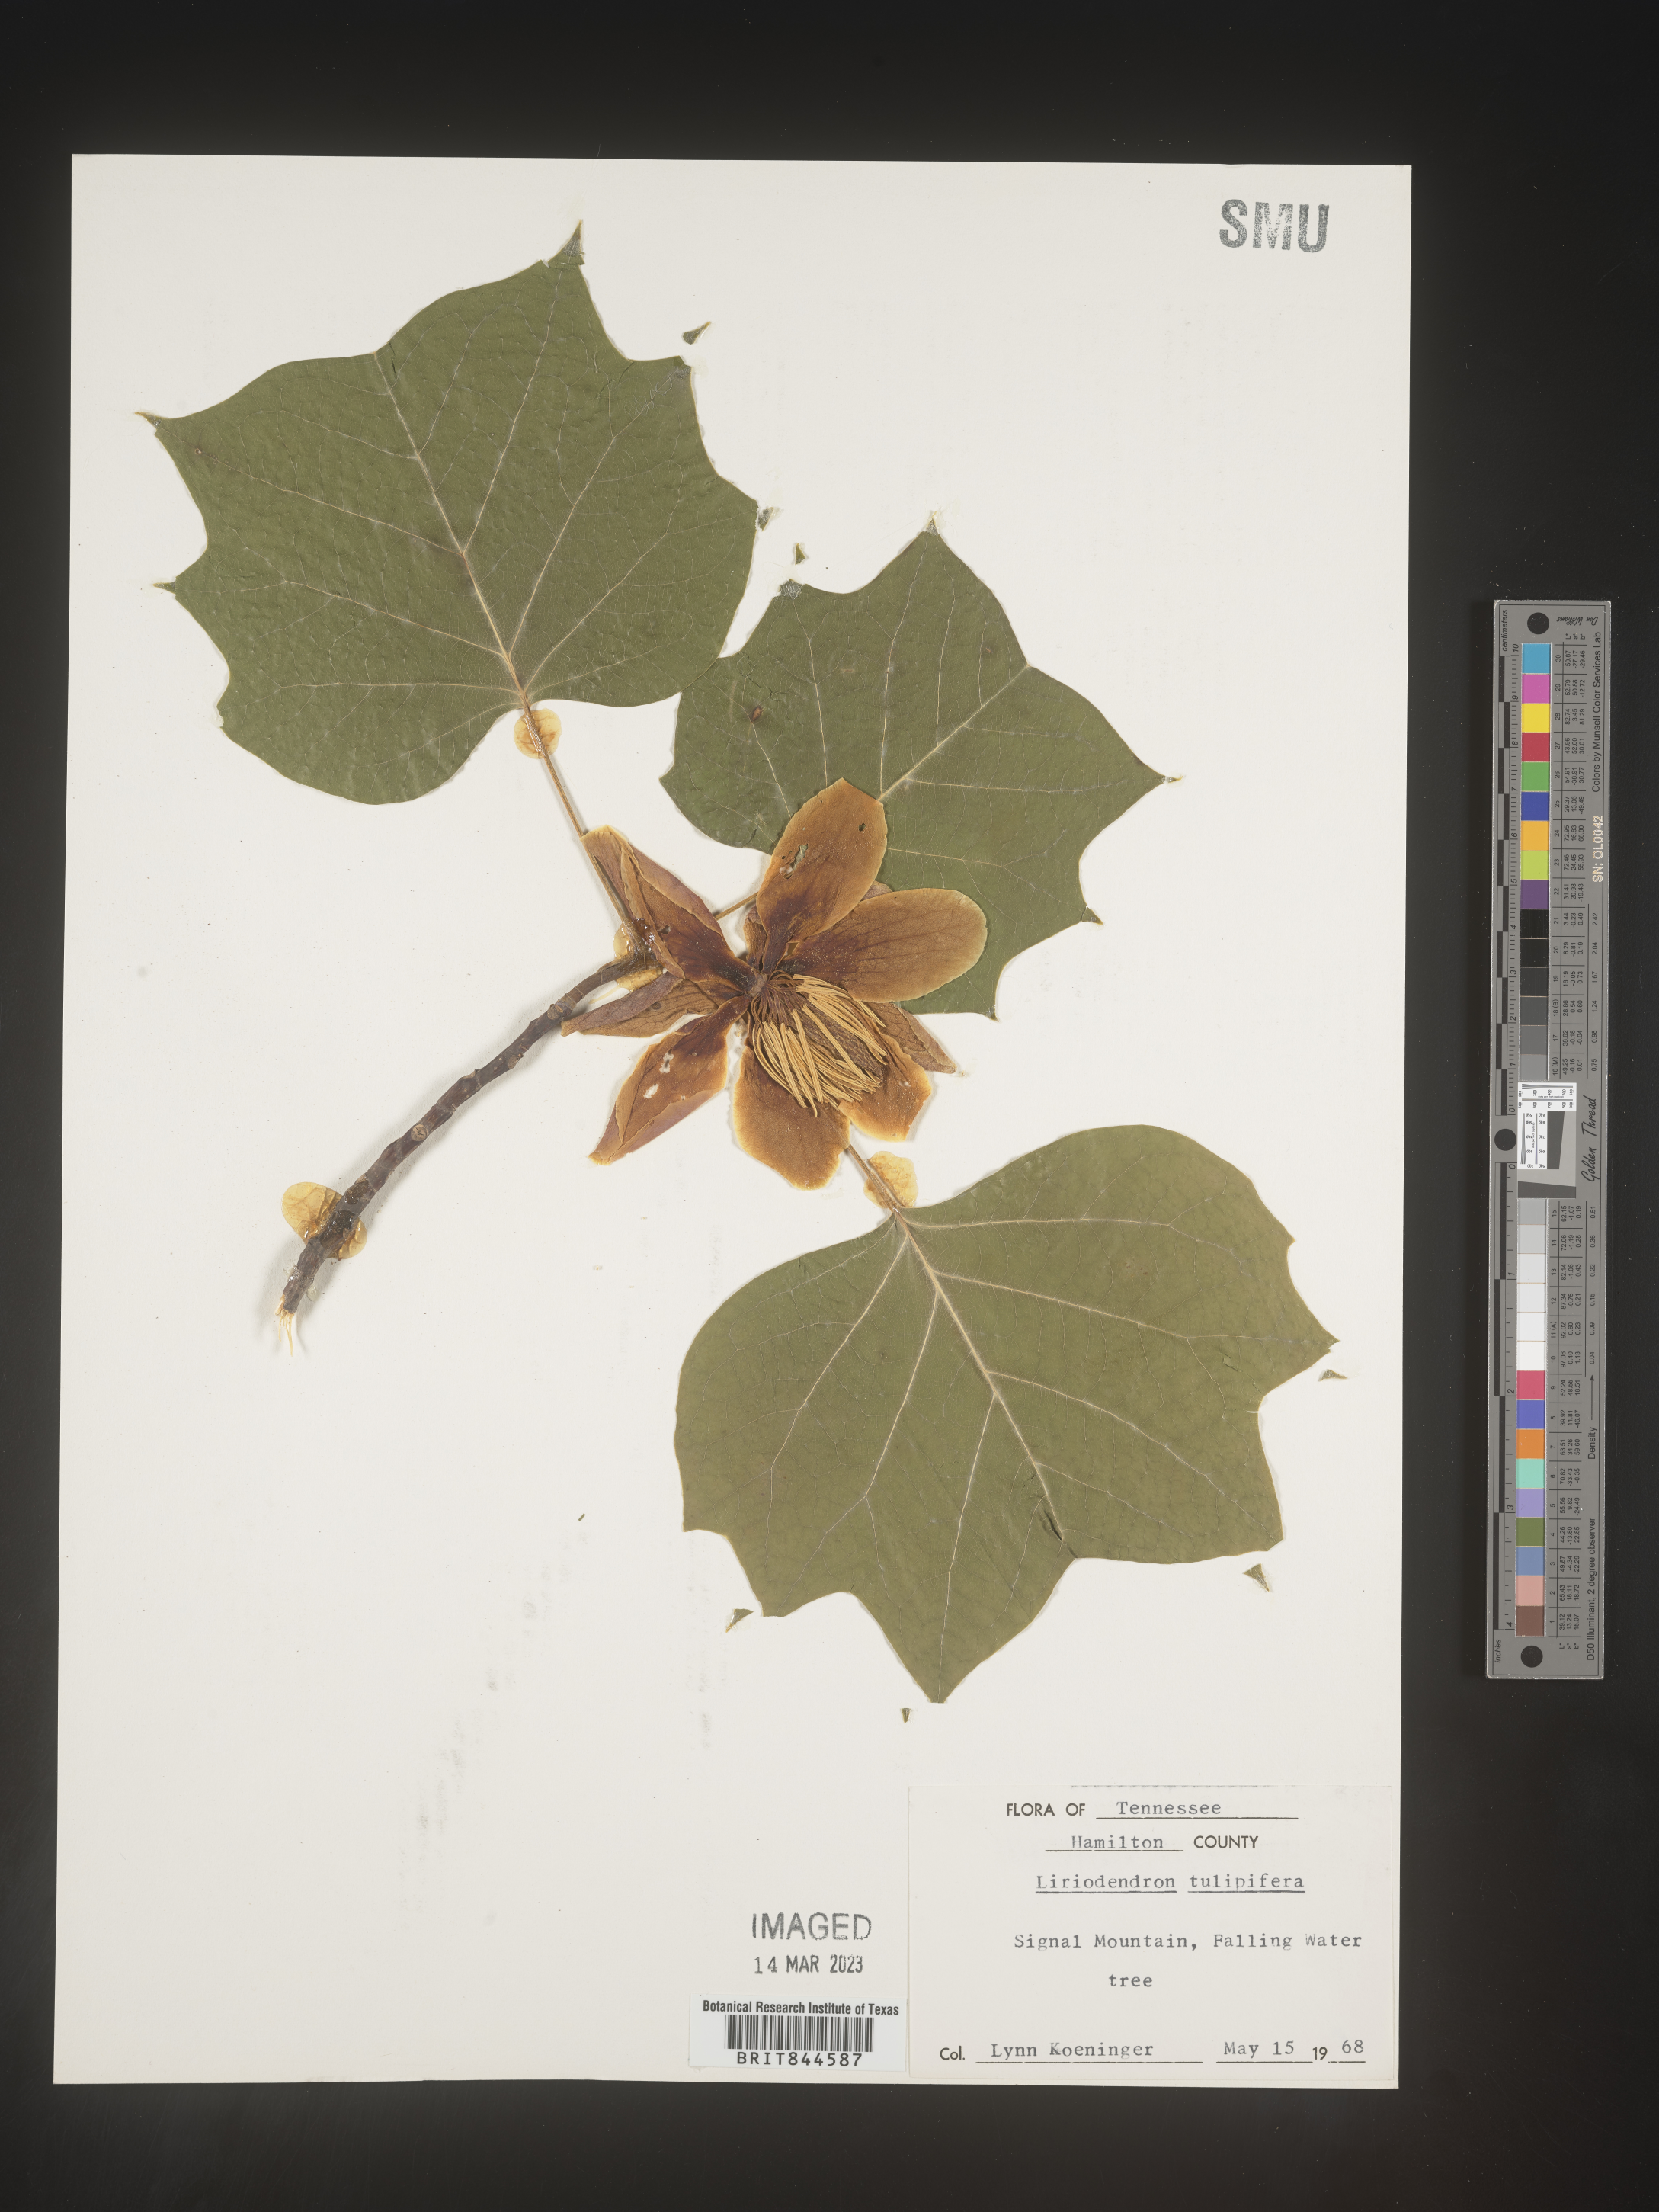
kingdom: Plantae
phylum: Tracheophyta
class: Magnoliopsida
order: Magnoliales
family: Magnoliaceae
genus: Liriodendron
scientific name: Liriodendron tulipifera
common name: Tulip tree
